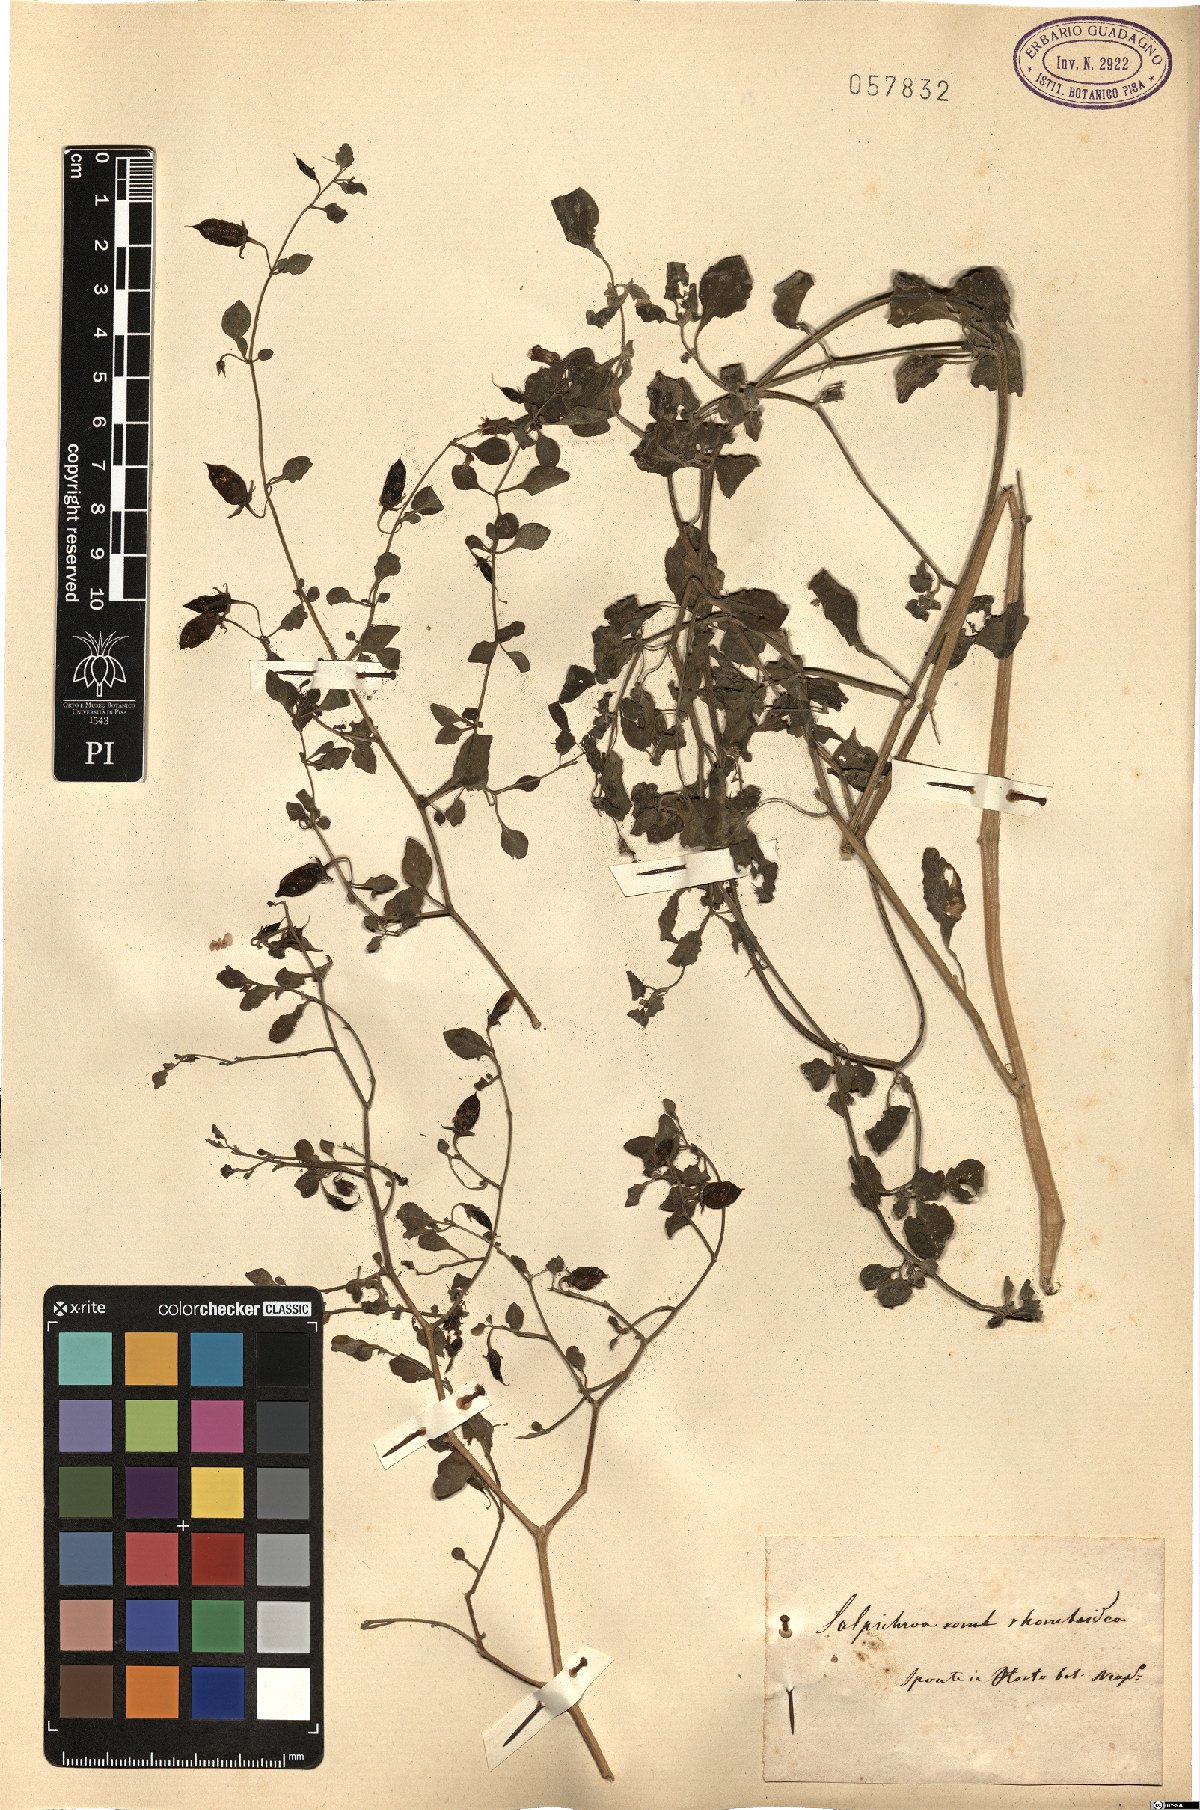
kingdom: Plantae
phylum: Tracheophyta
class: Magnoliopsida
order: Solanales
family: Solanaceae
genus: Salpichroa
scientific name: Salpichroa origanifolia
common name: Lily-of-the-valley-vine
